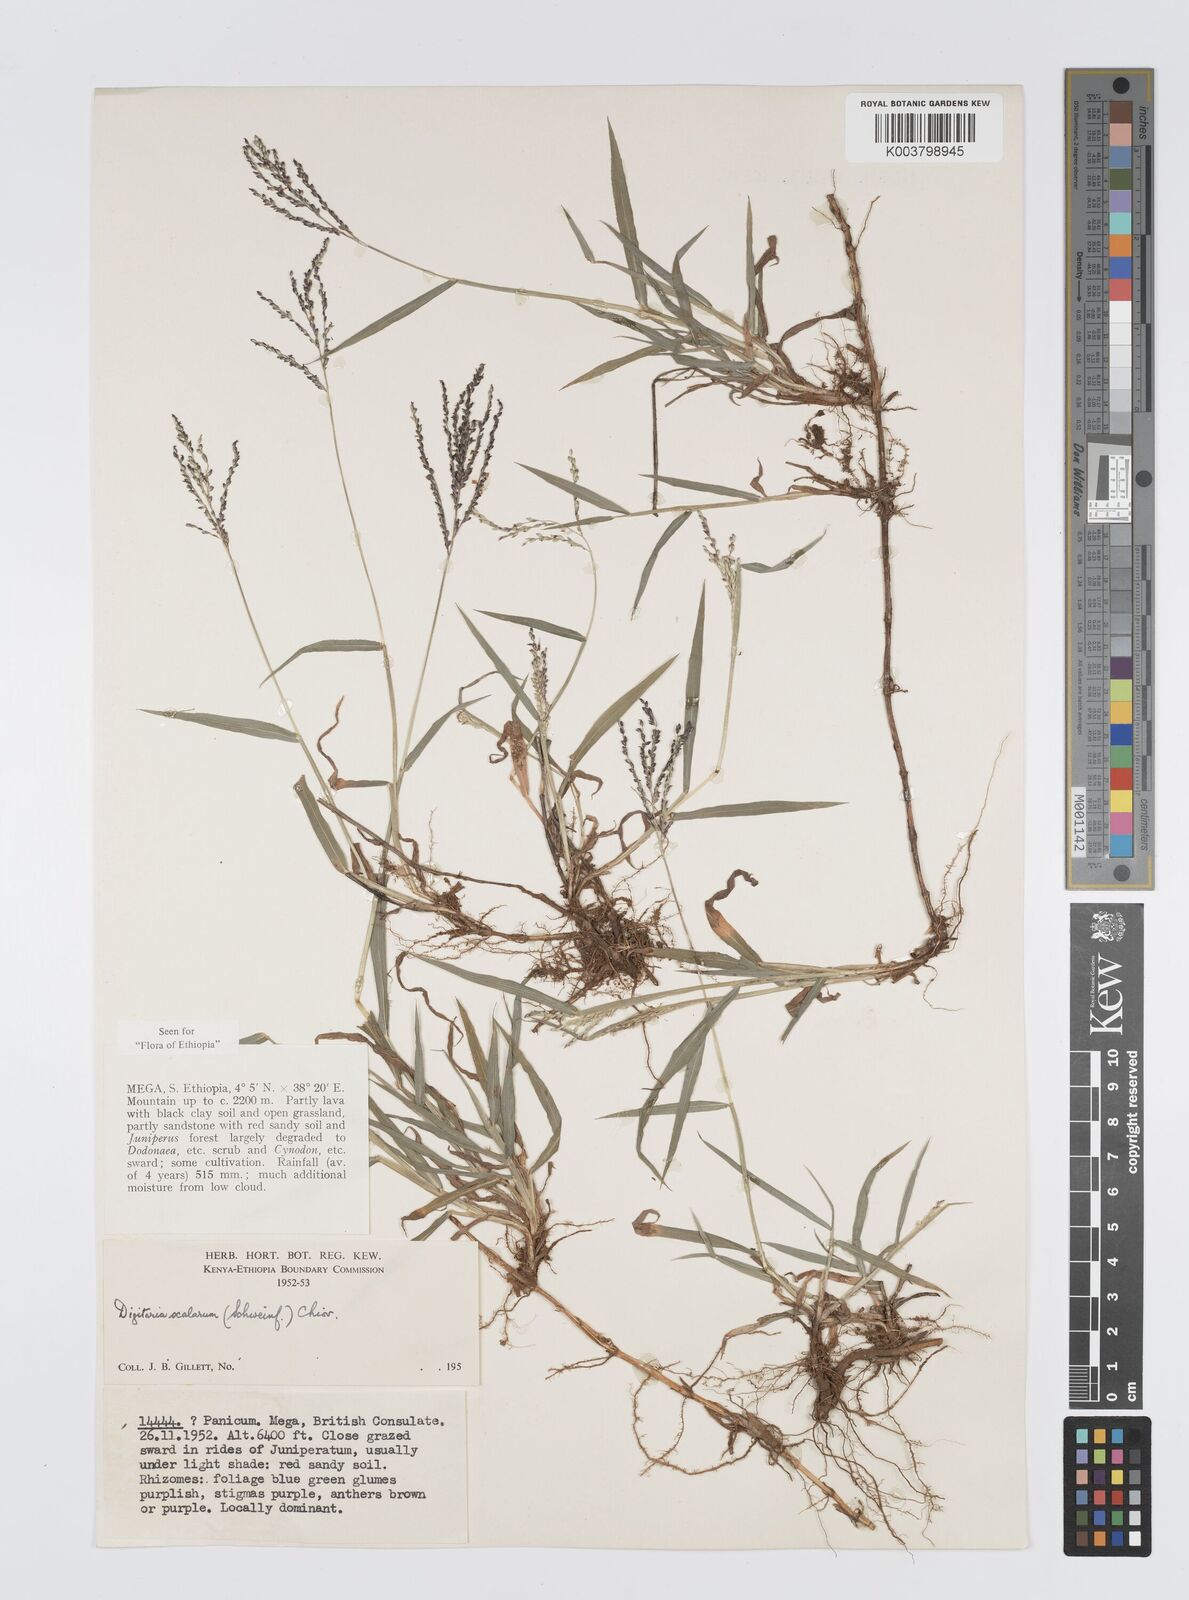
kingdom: Plantae
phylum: Tracheophyta
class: Liliopsida
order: Poales
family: Poaceae
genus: Digitaria
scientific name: Digitaria abyssinica
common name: African couchgrass
